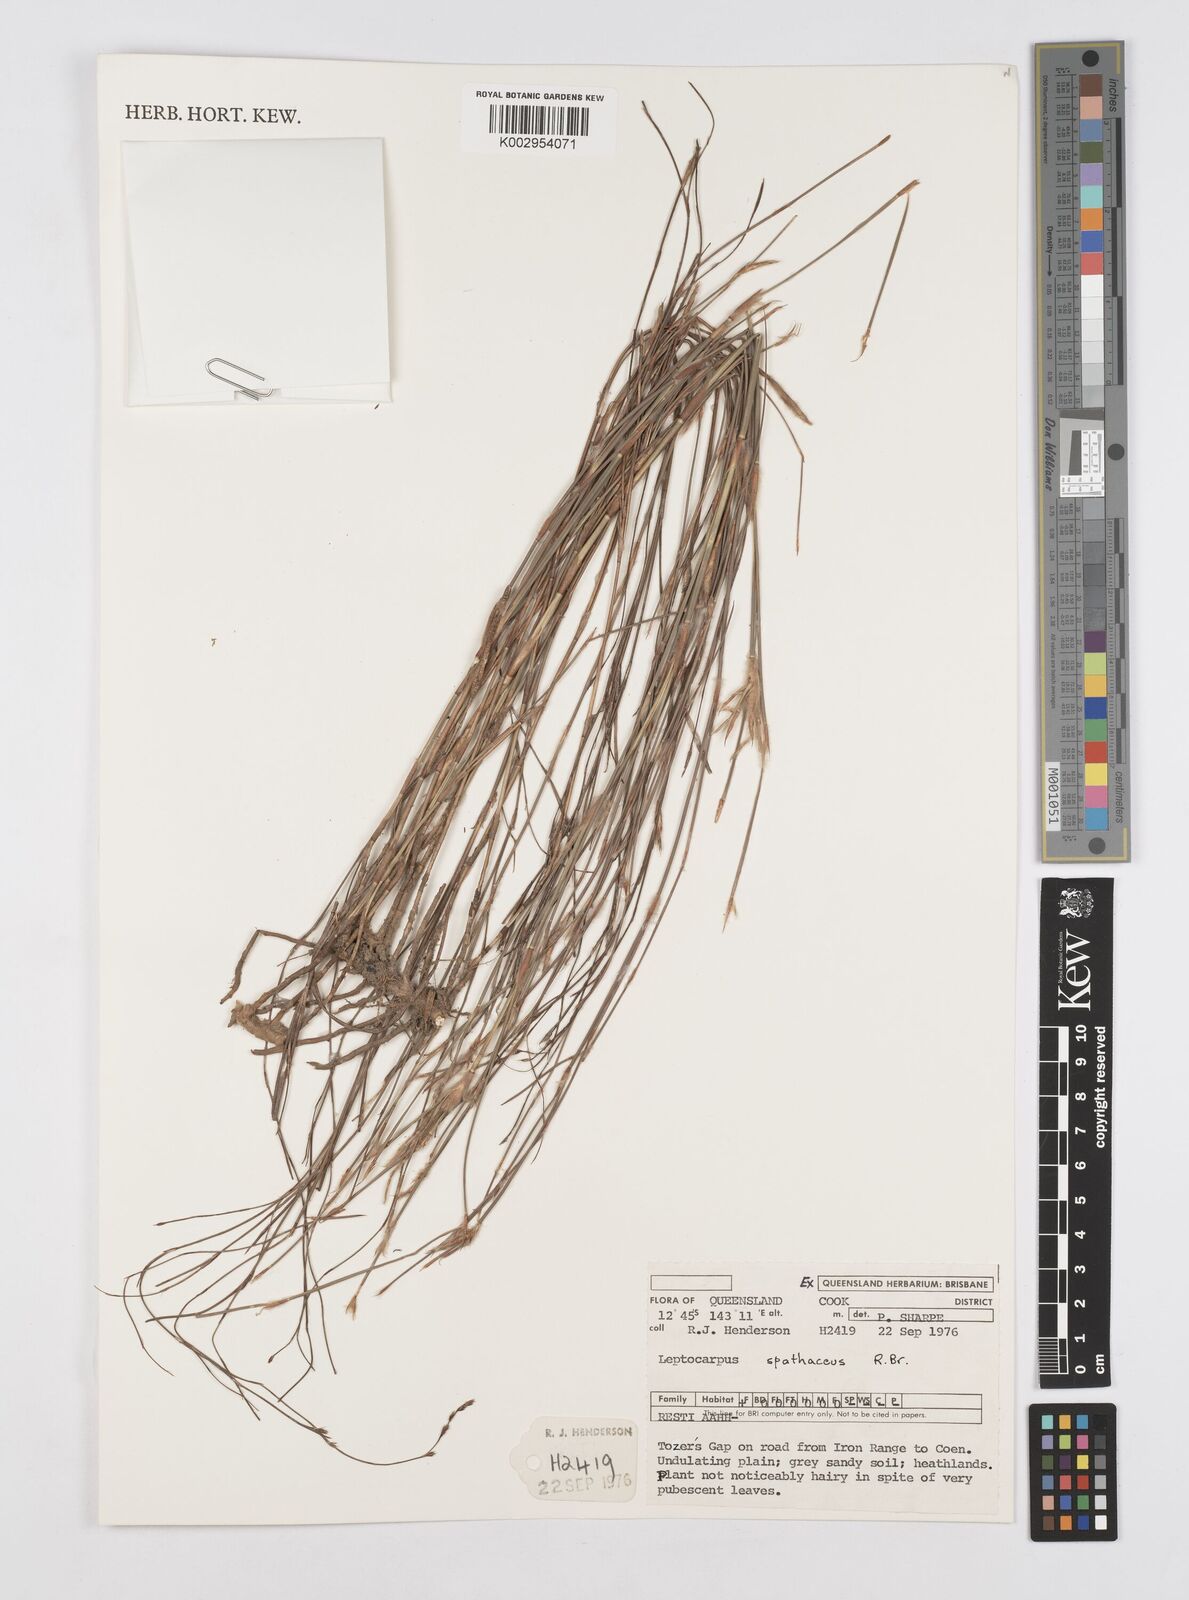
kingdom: Plantae
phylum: Tracheophyta
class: Liliopsida
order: Poales
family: Restionaceae
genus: Dapsilanthus
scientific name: Dapsilanthus spathaceus
